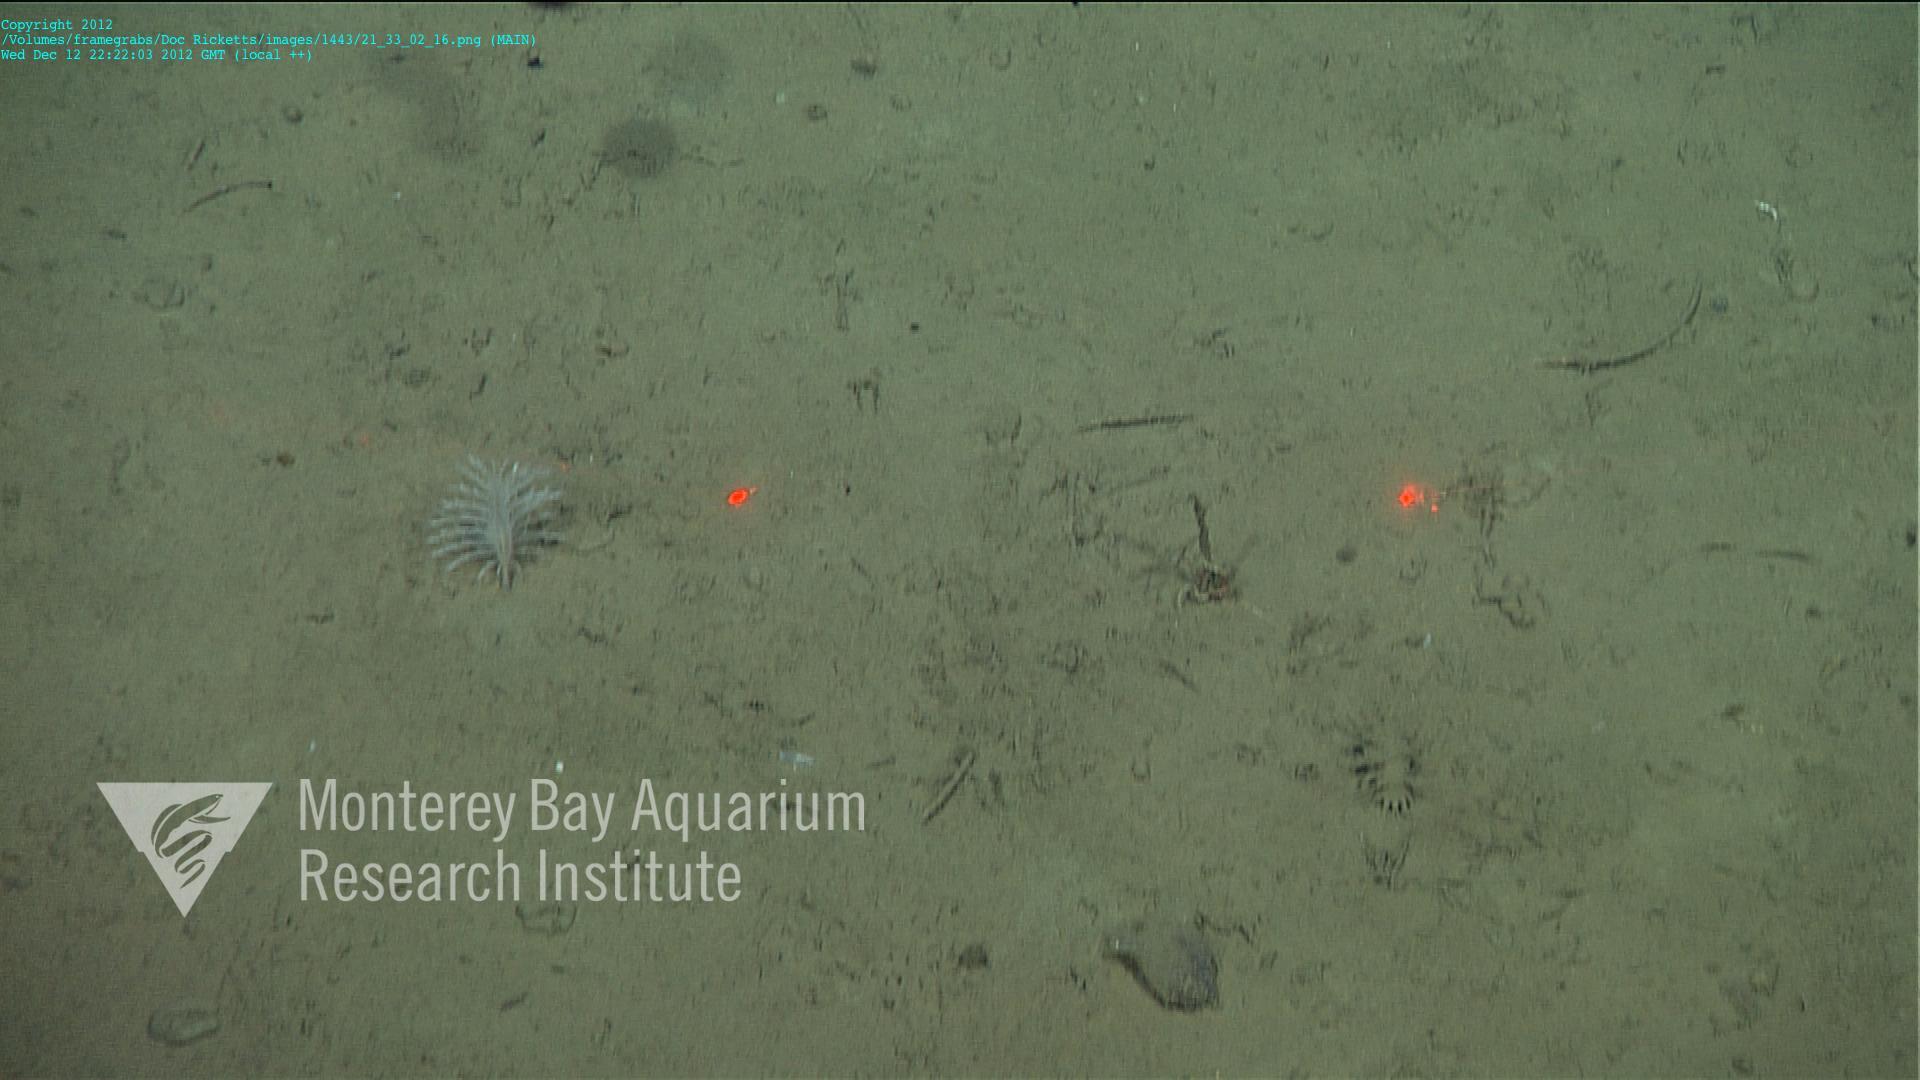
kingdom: Animalia
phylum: Cnidaria
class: Anthozoa
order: Scleralcyonacea
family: Pennatulidae
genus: Pennatula
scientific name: Pennatula
